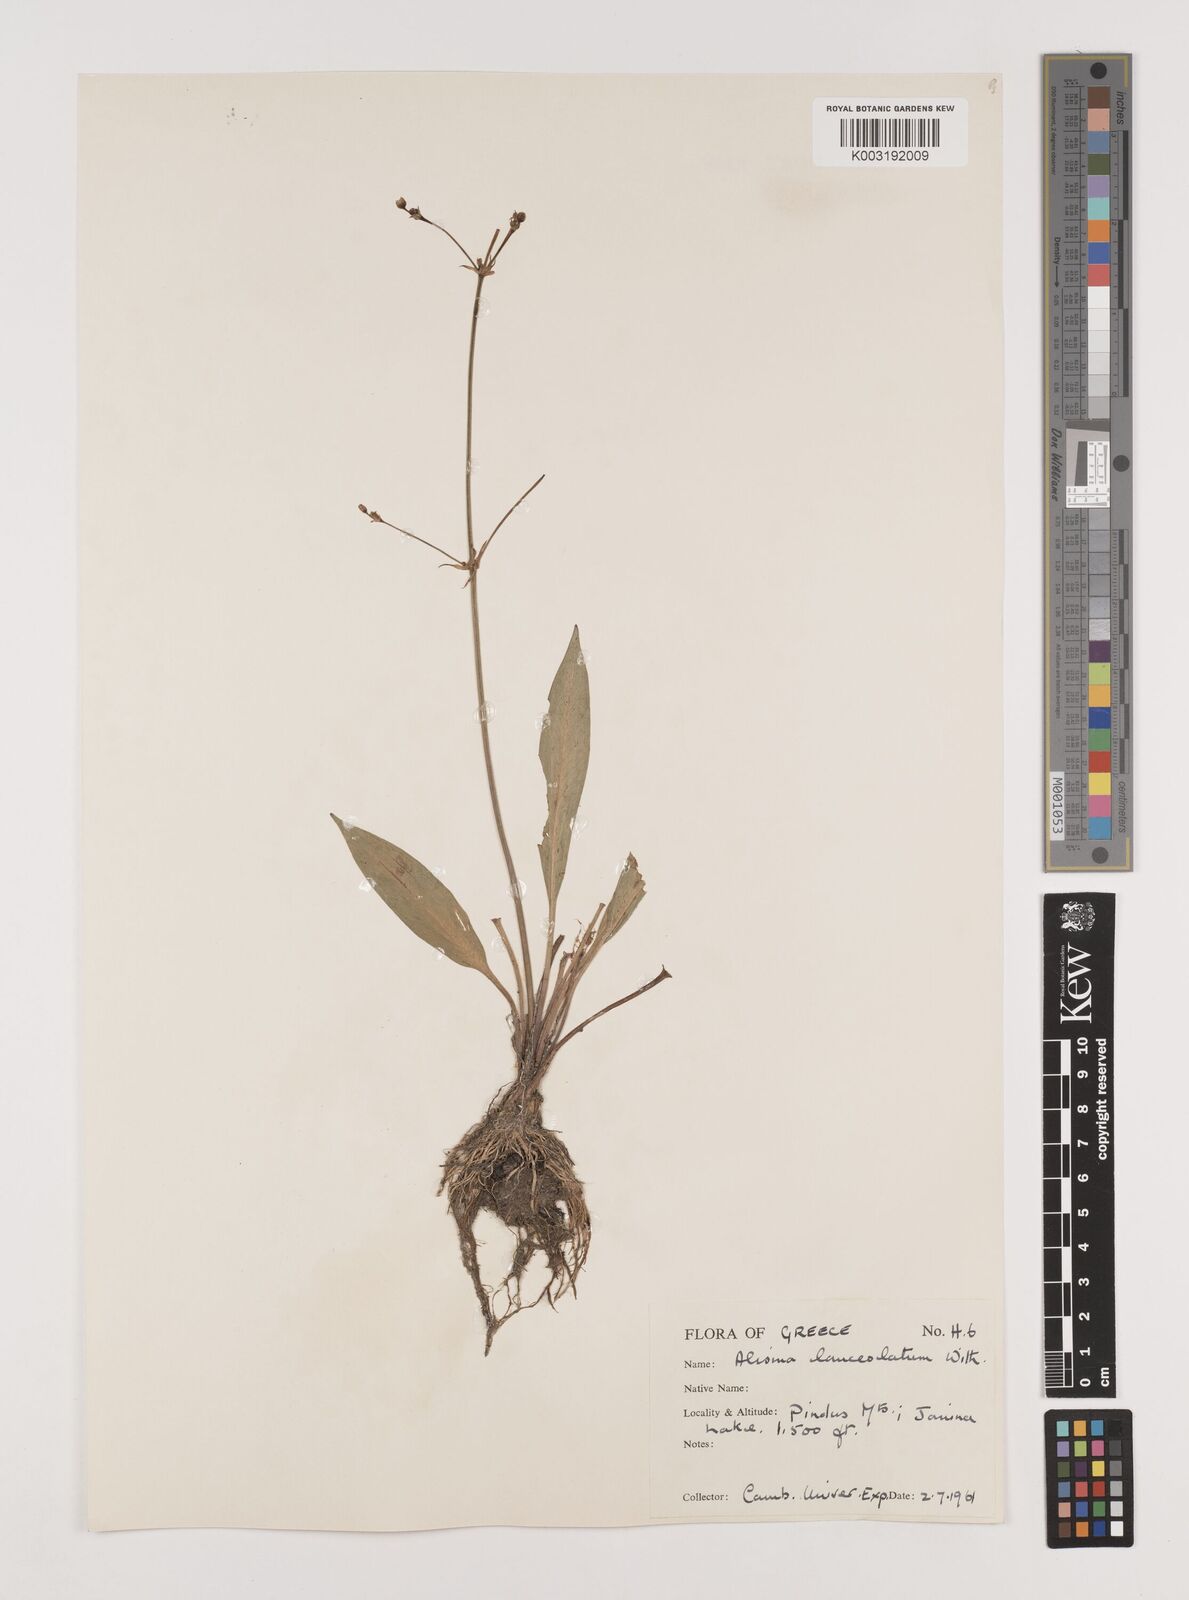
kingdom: Plantae
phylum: Tracheophyta
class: Liliopsida
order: Alismatales
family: Alismataceae
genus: Alisma
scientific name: Alisma lanceolatum
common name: Narrow-leaved water-plantain
